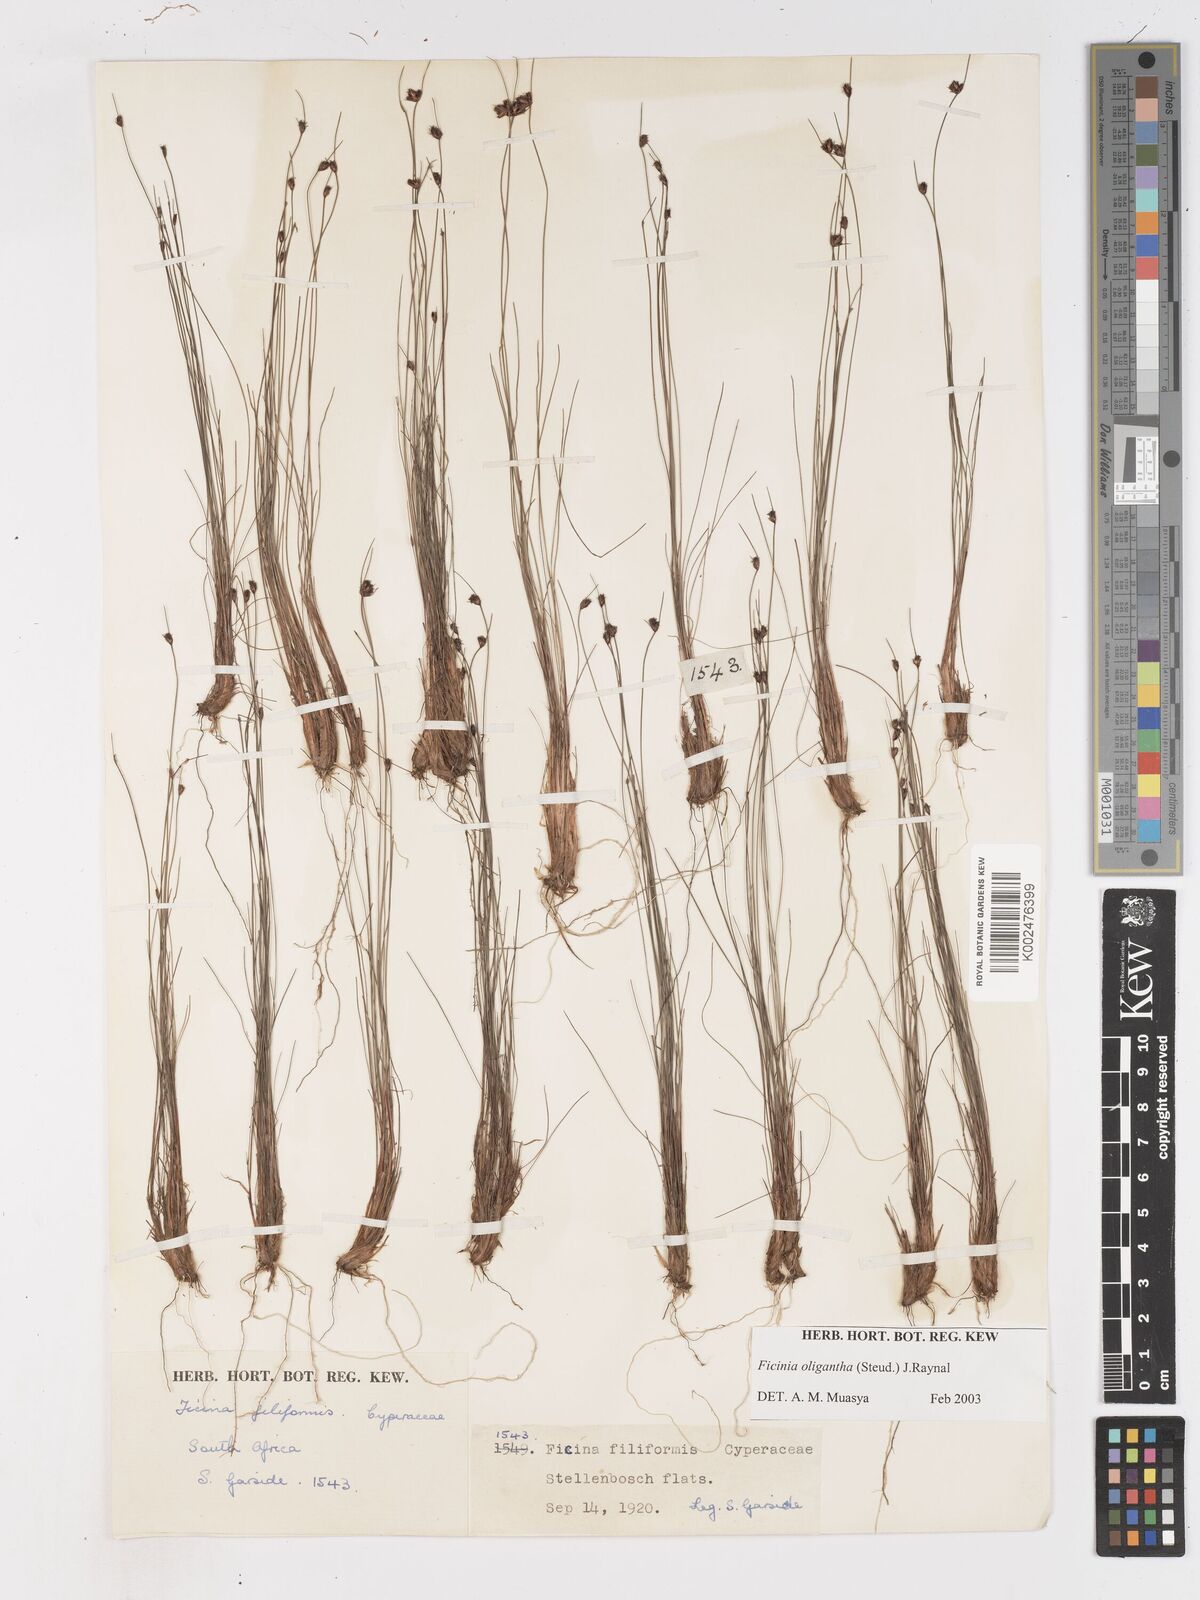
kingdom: Plantae
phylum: Tracheophyta
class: Liliopsida
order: Poales
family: Cyperaceae
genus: Ficinia
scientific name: Ficinia oligantha
